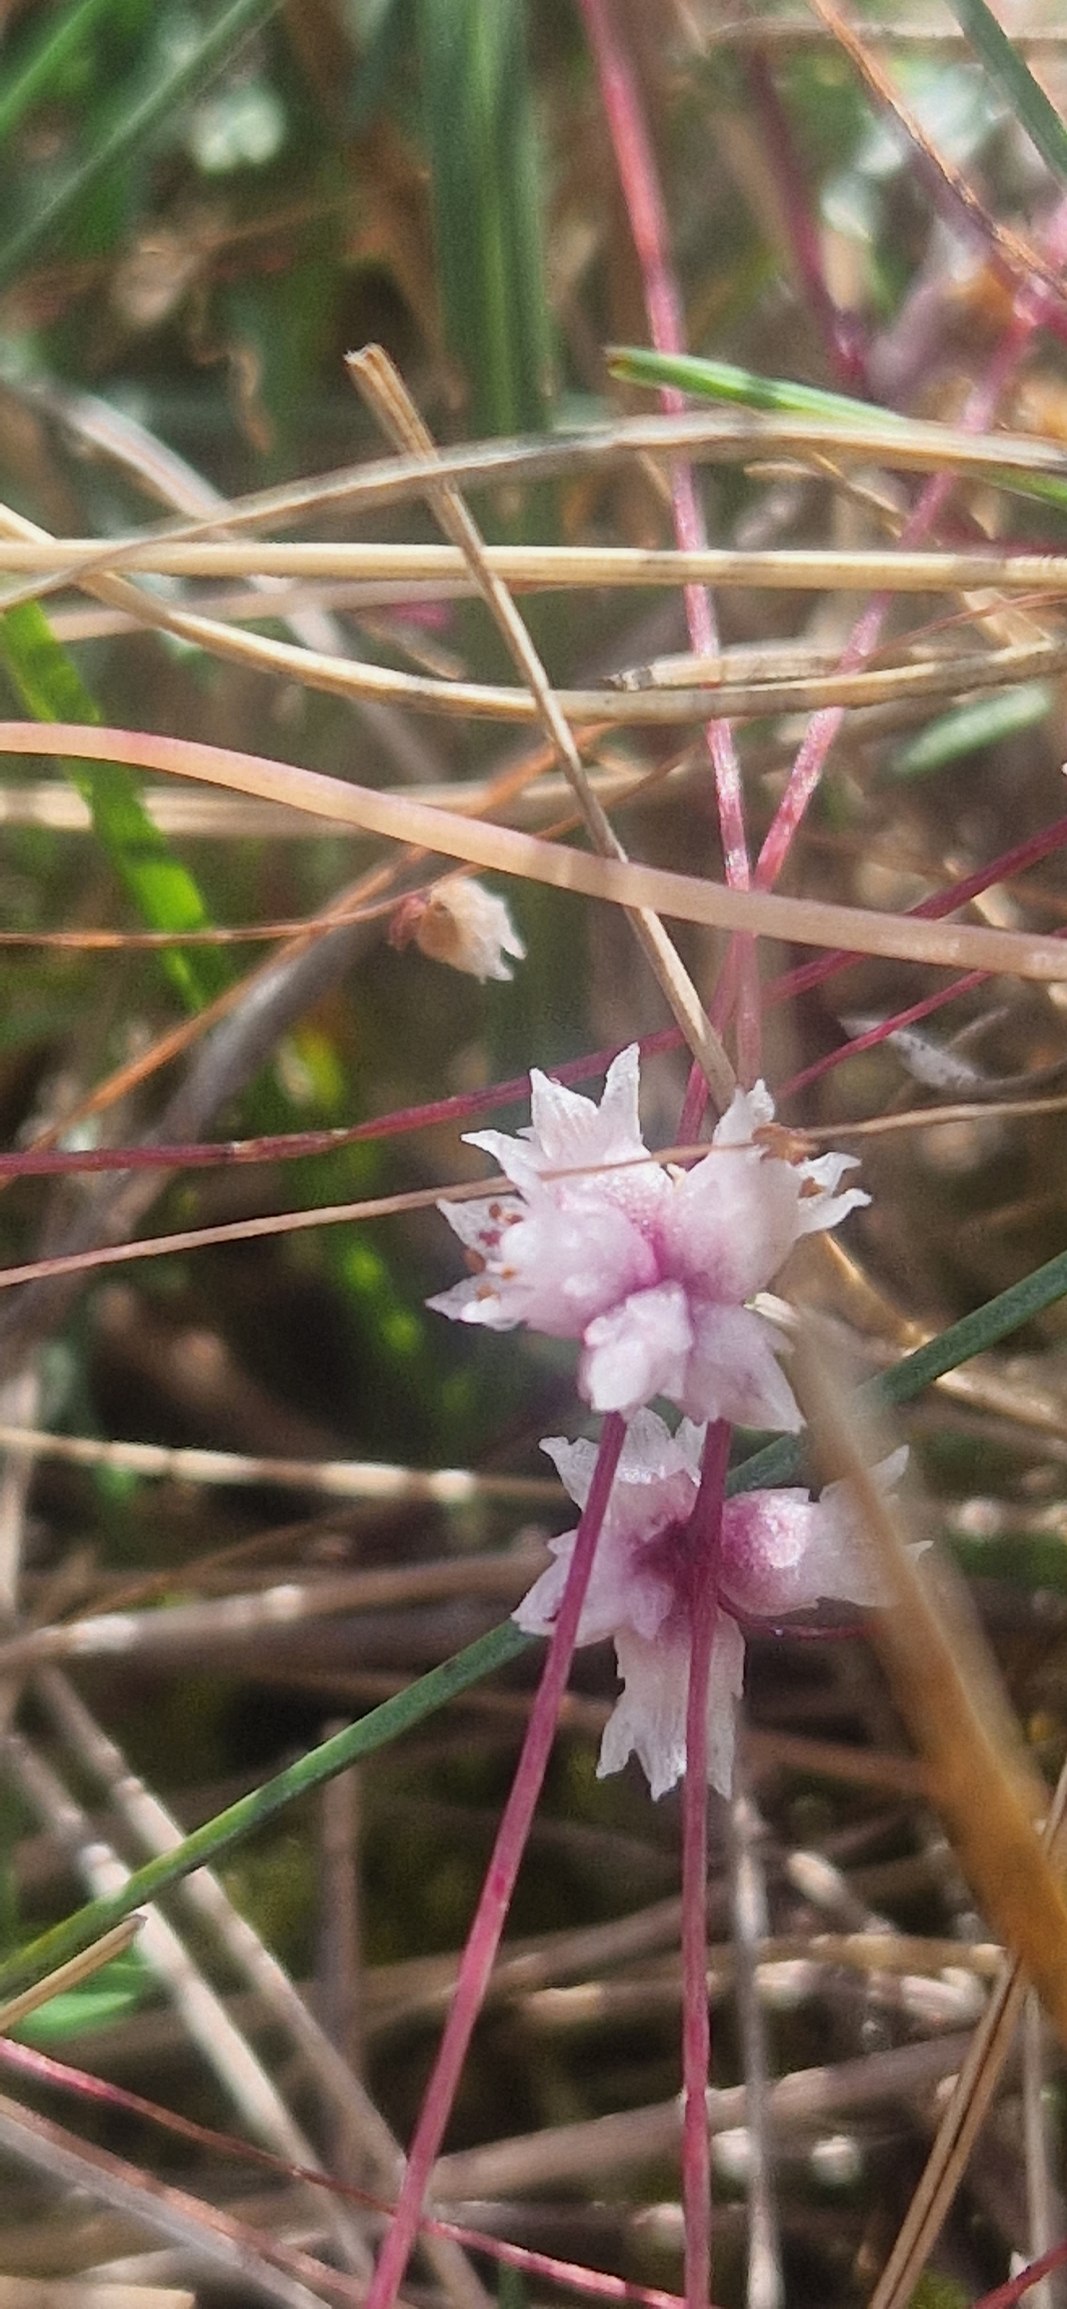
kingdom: Plantae
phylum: Tracheophyta
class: Magnoliopsida
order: Solanales
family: Convolvulaceae
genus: Cuscuta
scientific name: Cuscuta epithymum
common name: Lyng-silke
